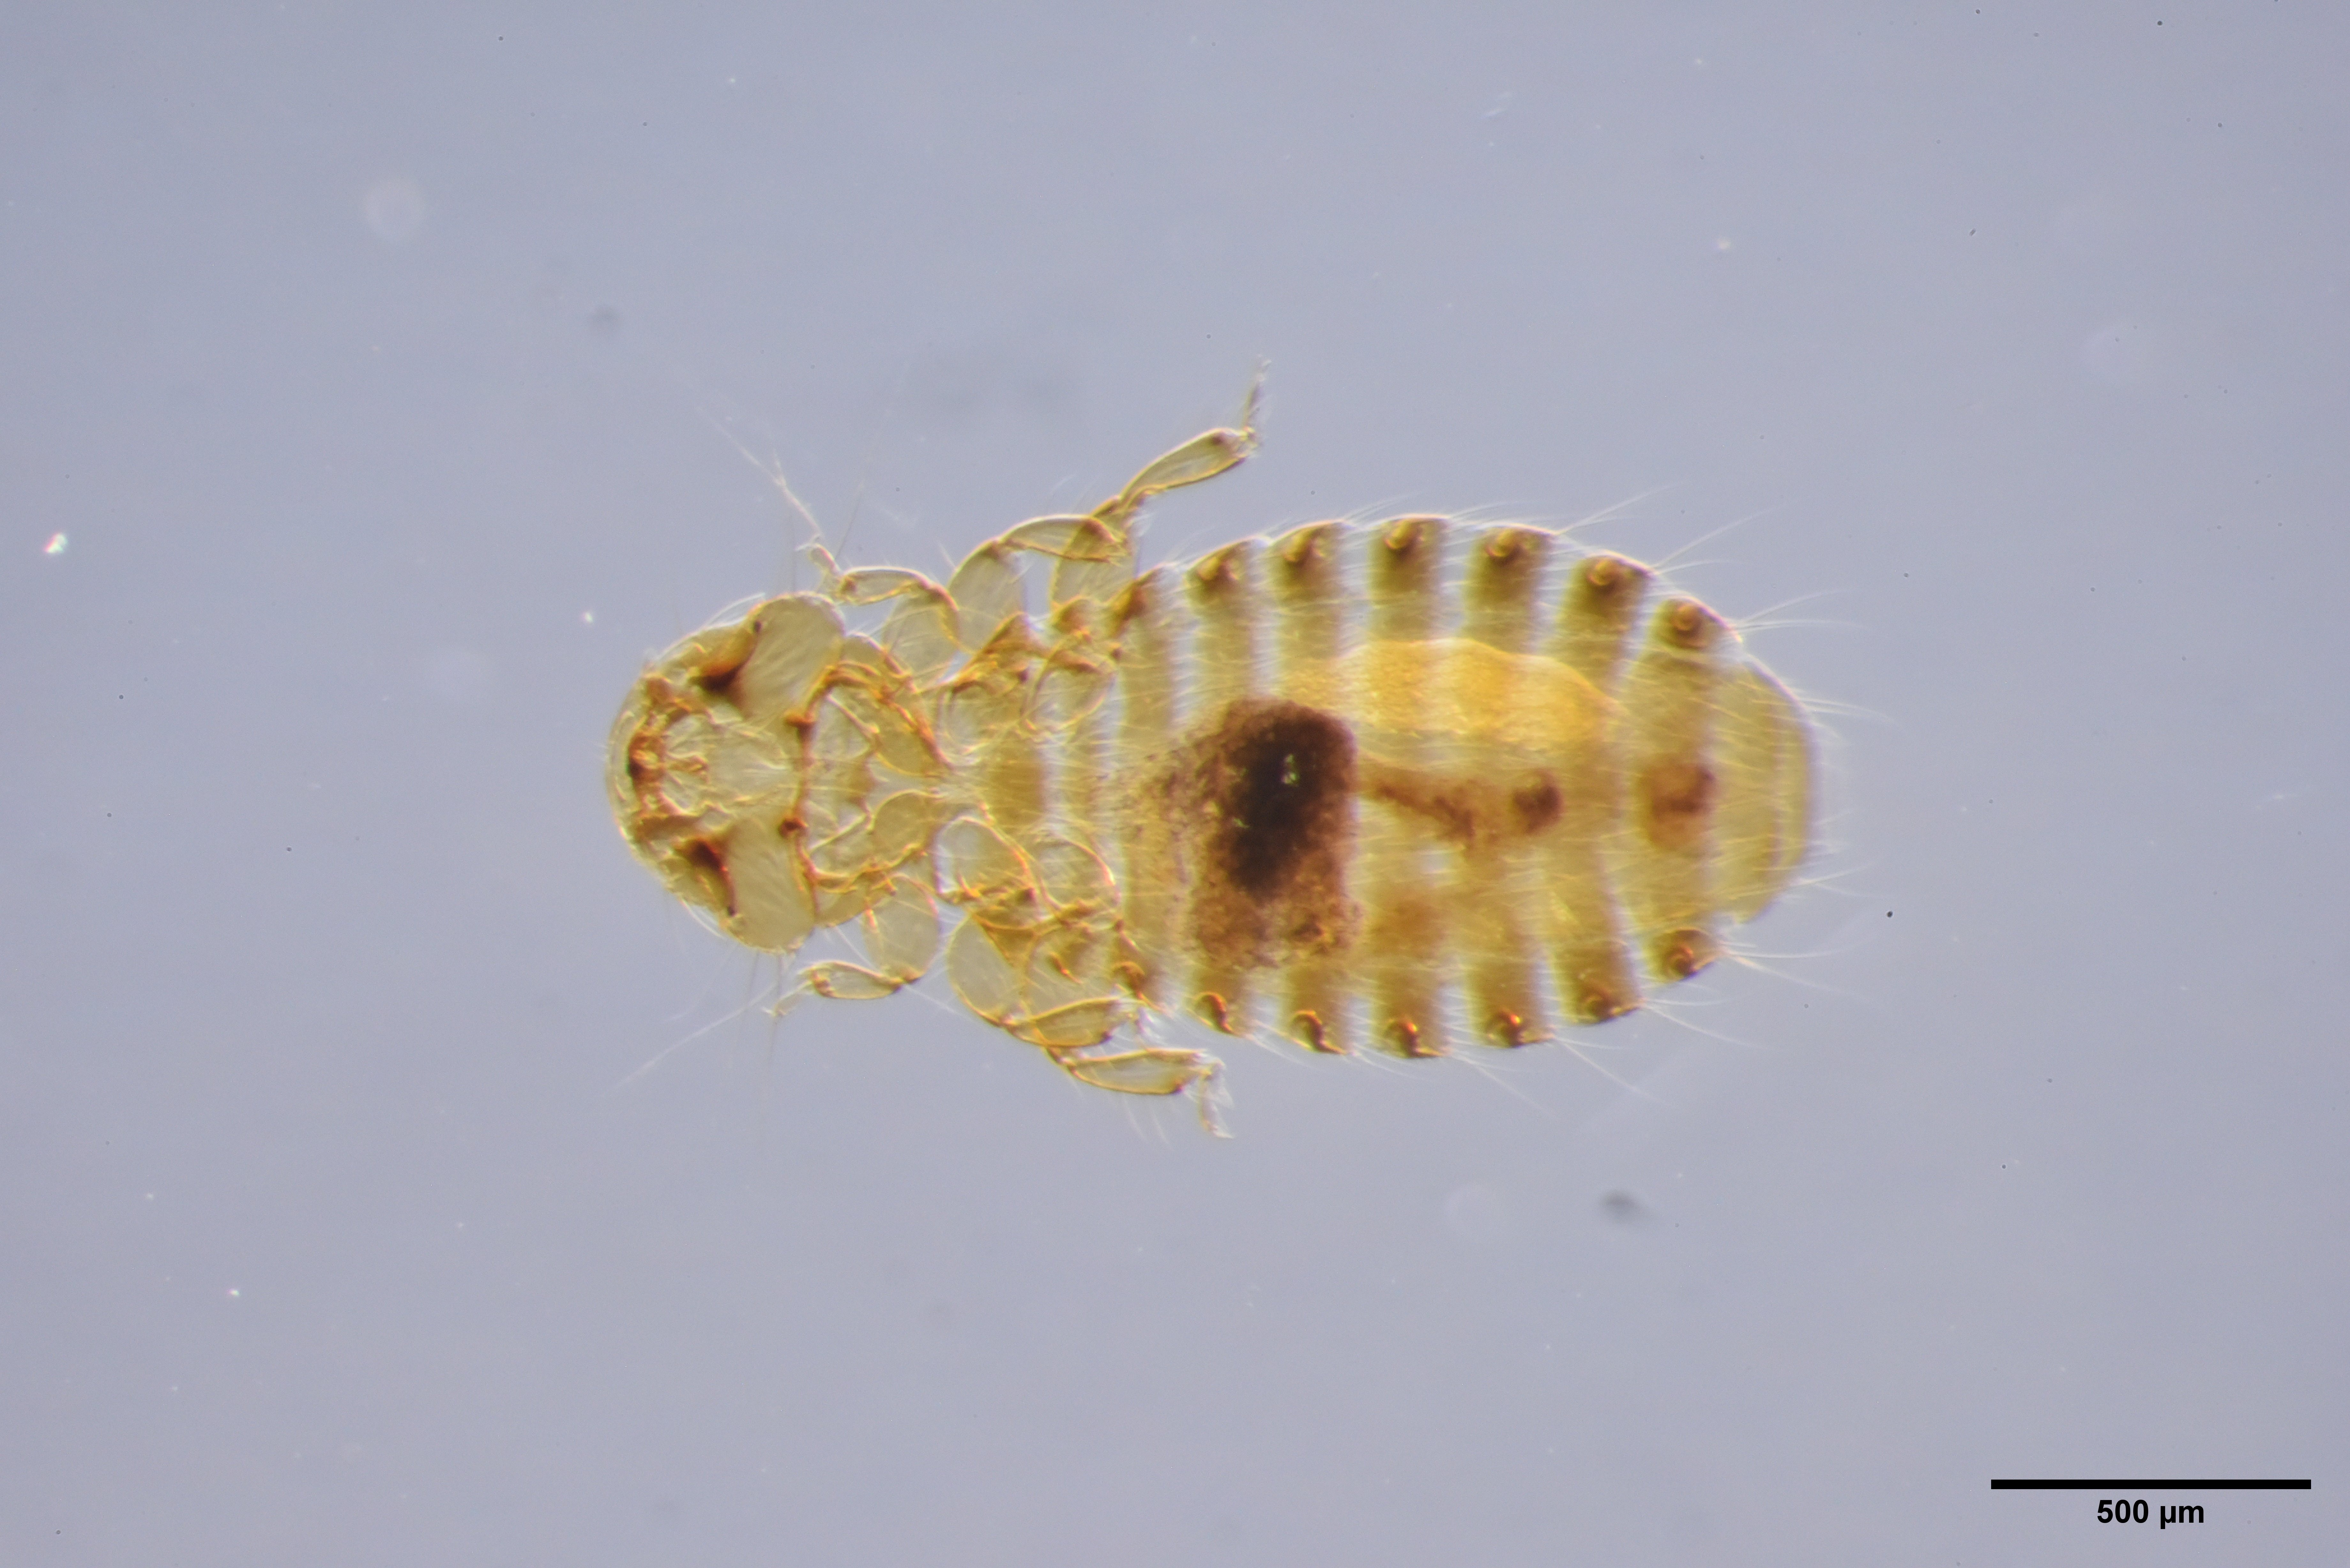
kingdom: Animalia
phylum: Arthropoda
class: Insecta
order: Psocodea
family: Ancistronidae
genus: Austromenopon
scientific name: Austromenopon brevifimbriatum
